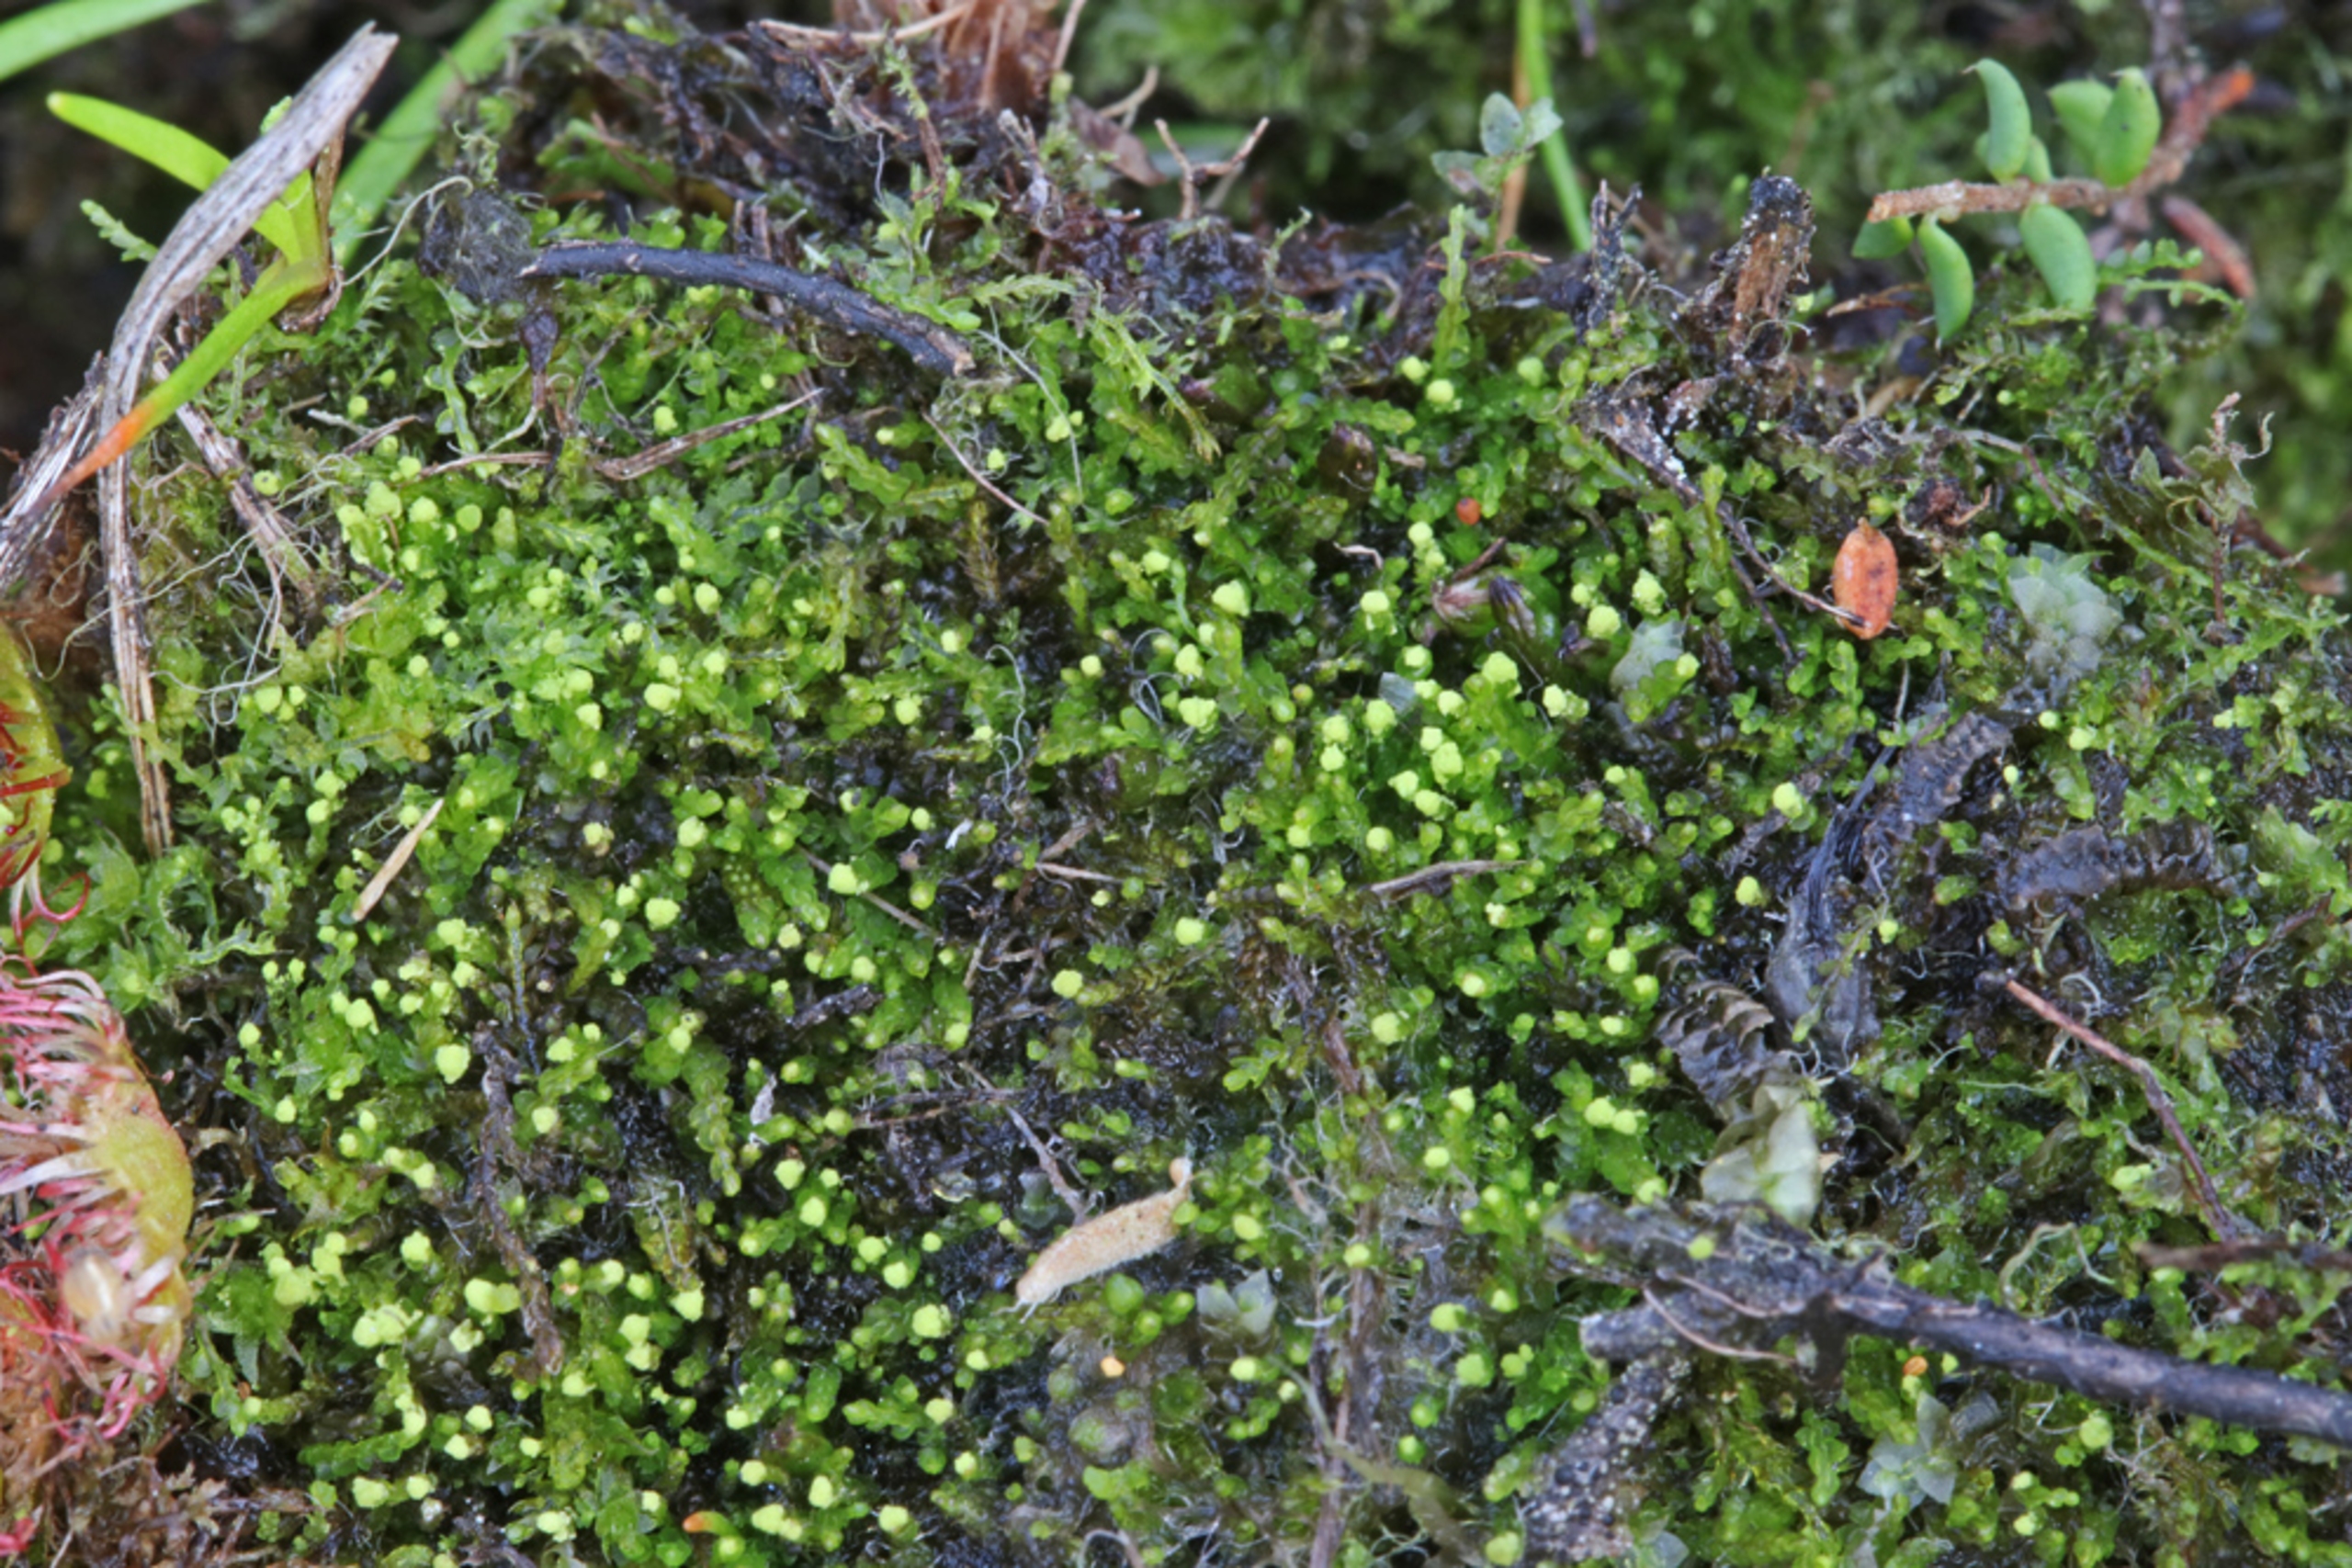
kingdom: Plantae
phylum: Marchantiophyta
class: Jungermanniopsida
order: Jungermanniales
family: Cephaloziaceae
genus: Odontoschisma
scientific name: Odontoschisma francisci
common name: Sand-vævmos
